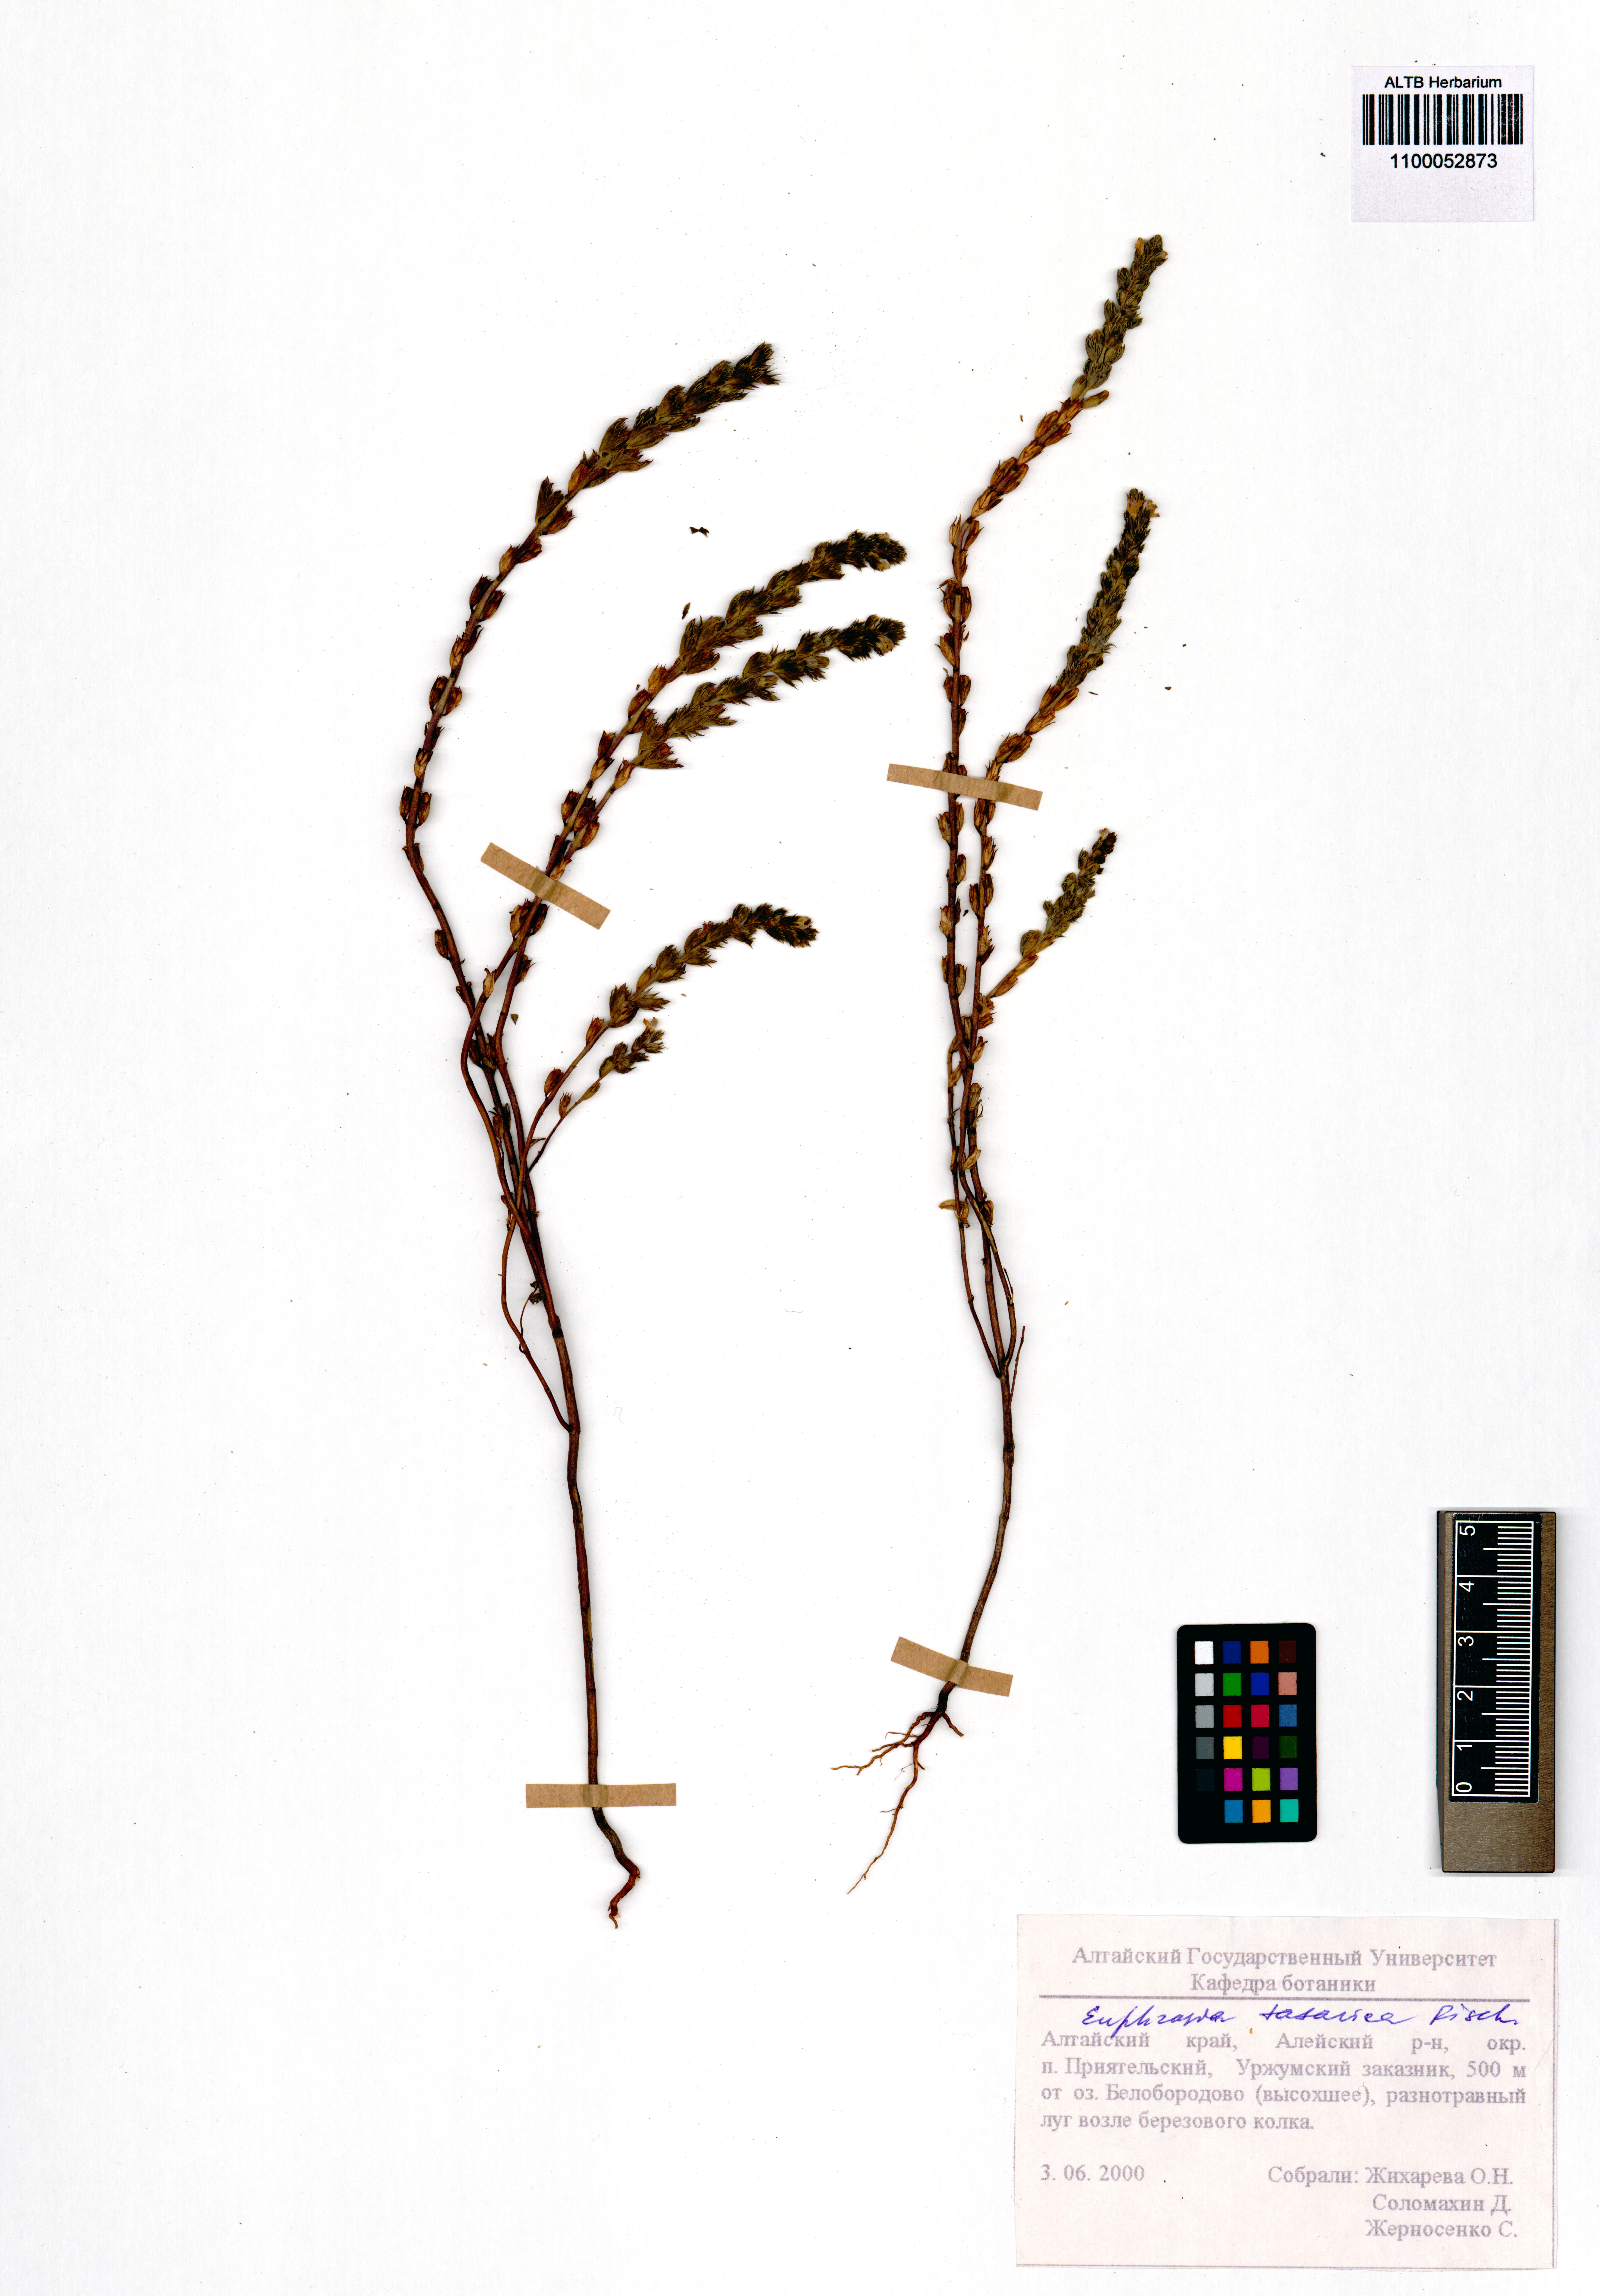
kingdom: Plantae
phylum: Tracheophyta
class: Magnoliopsida
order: Lamiales
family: Orobanchaceae
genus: Euphrasia
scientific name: Euphrasia pectinata
